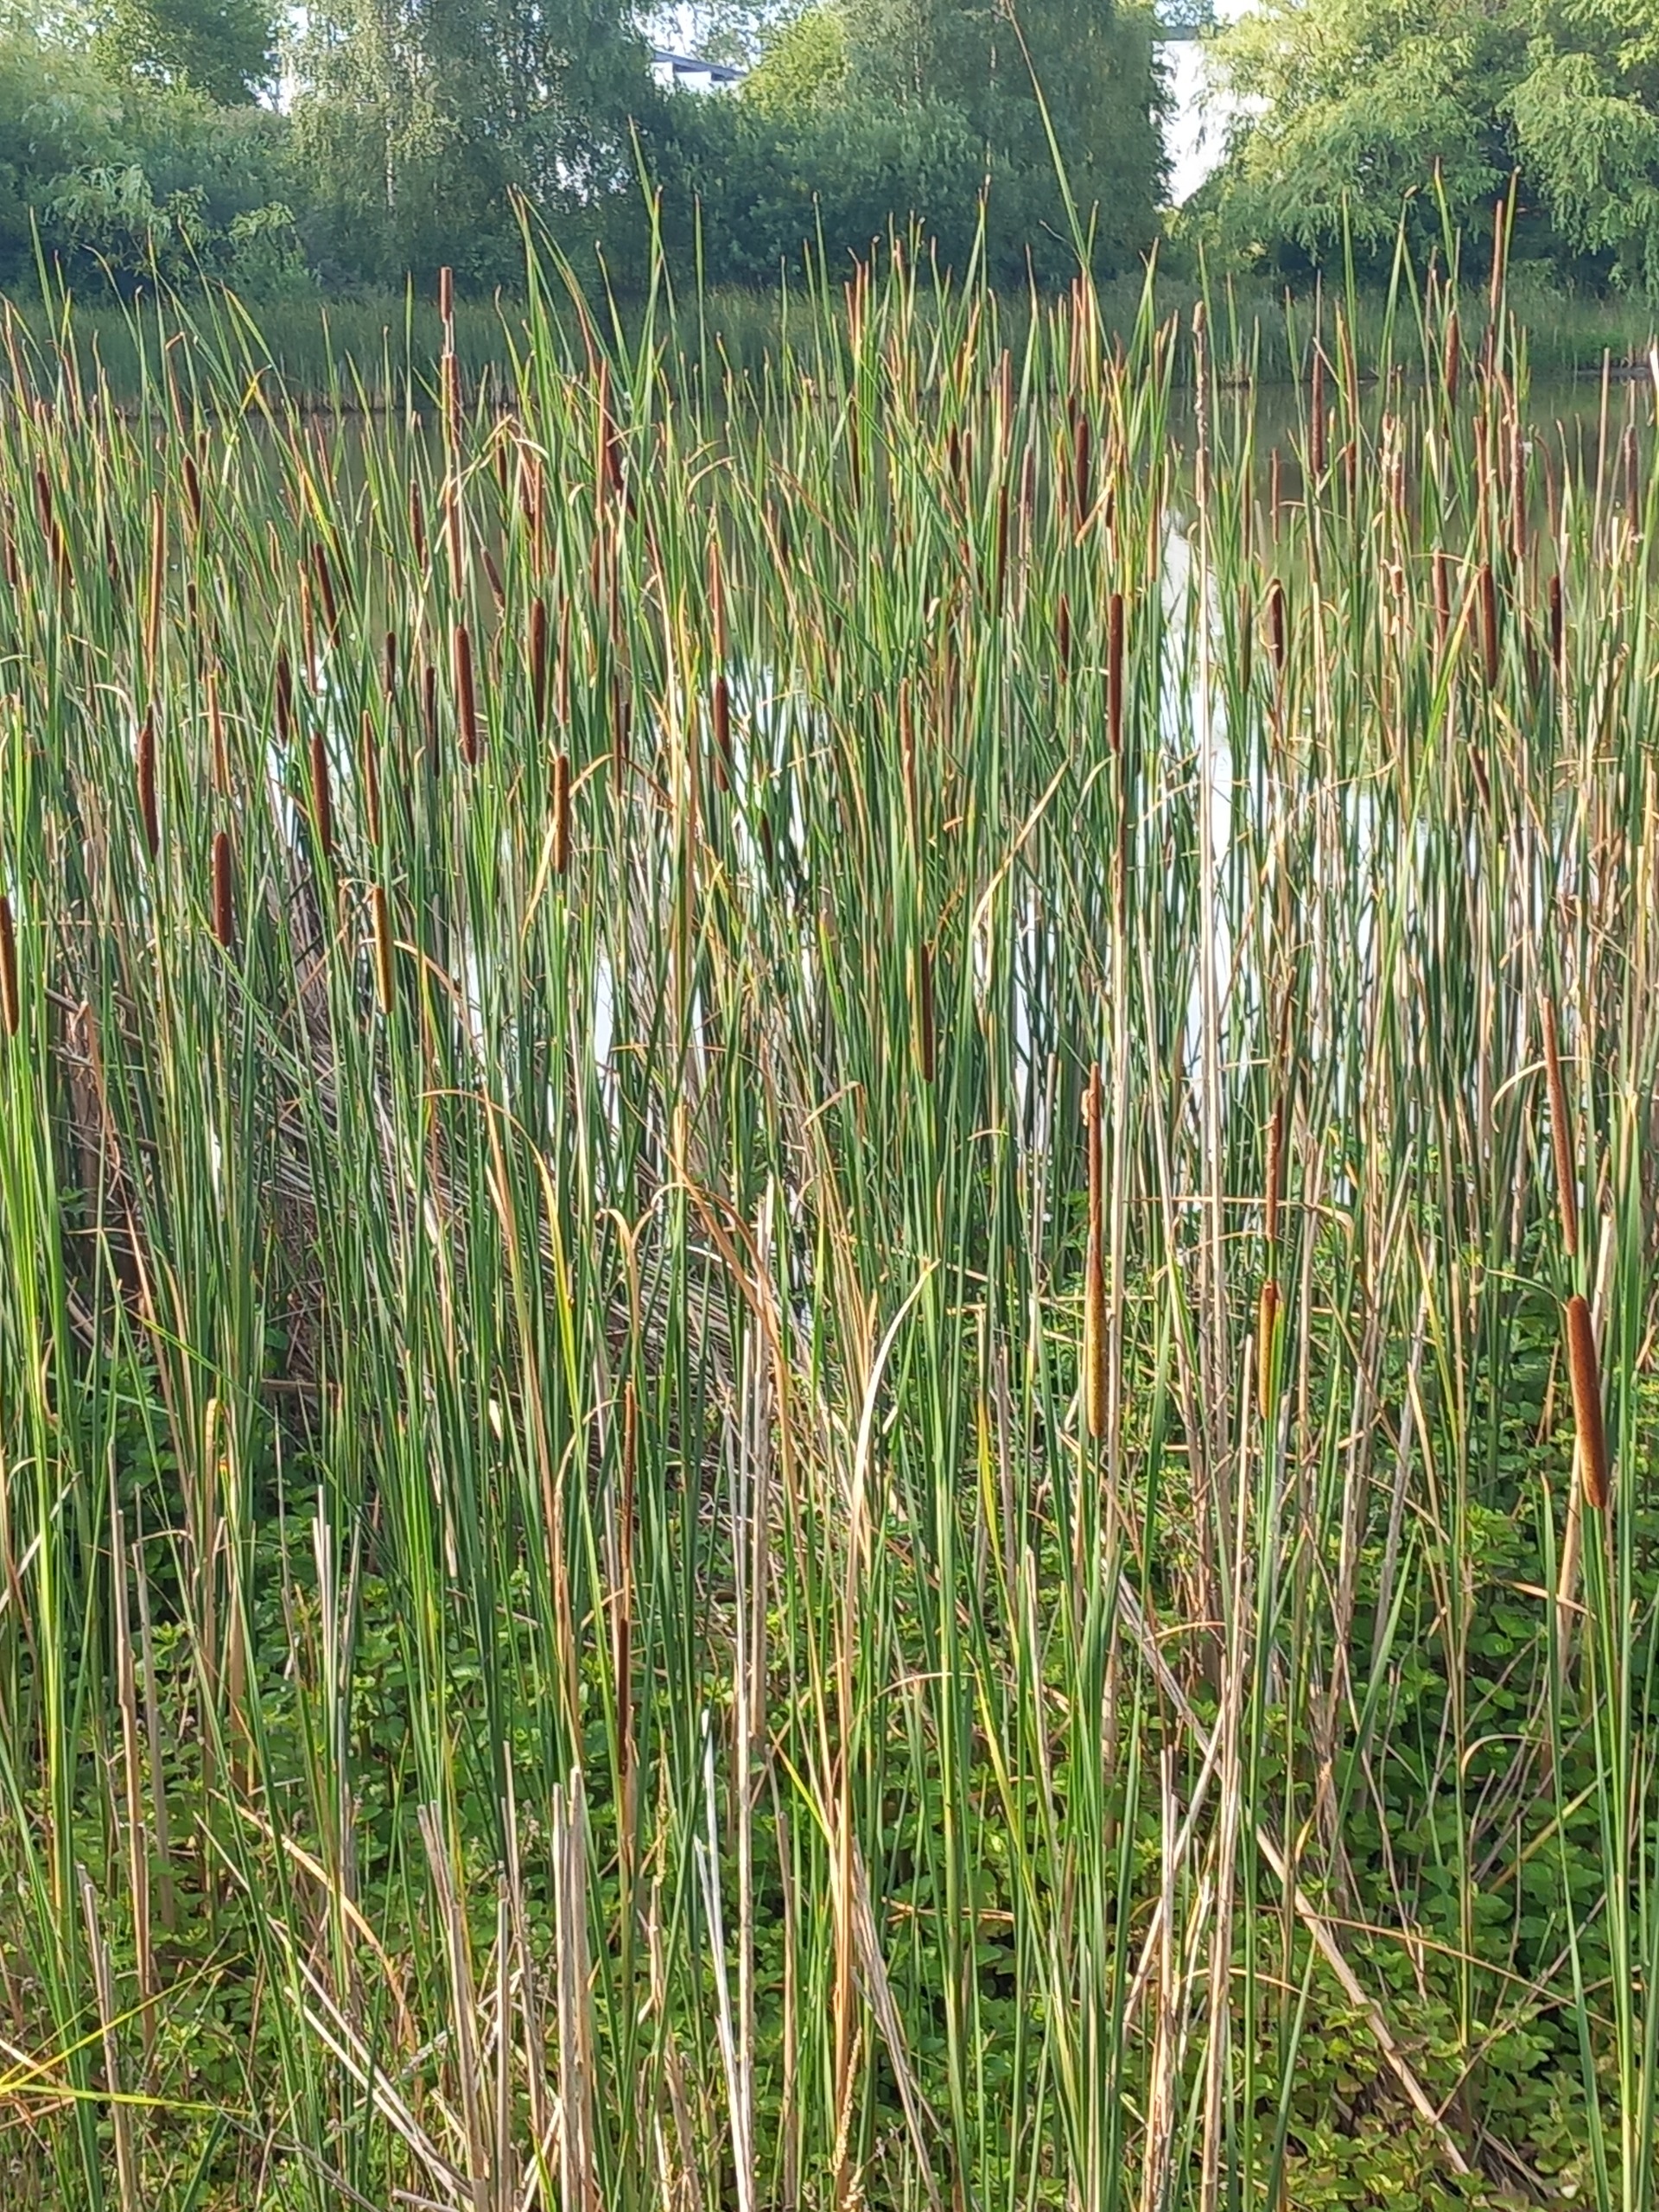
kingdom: Plantae
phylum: Tracheophyta
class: Liliopsida
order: Poales
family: Typhaceae
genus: Typha
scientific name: Typha angustifolia
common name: Smalbladet dunhammer
